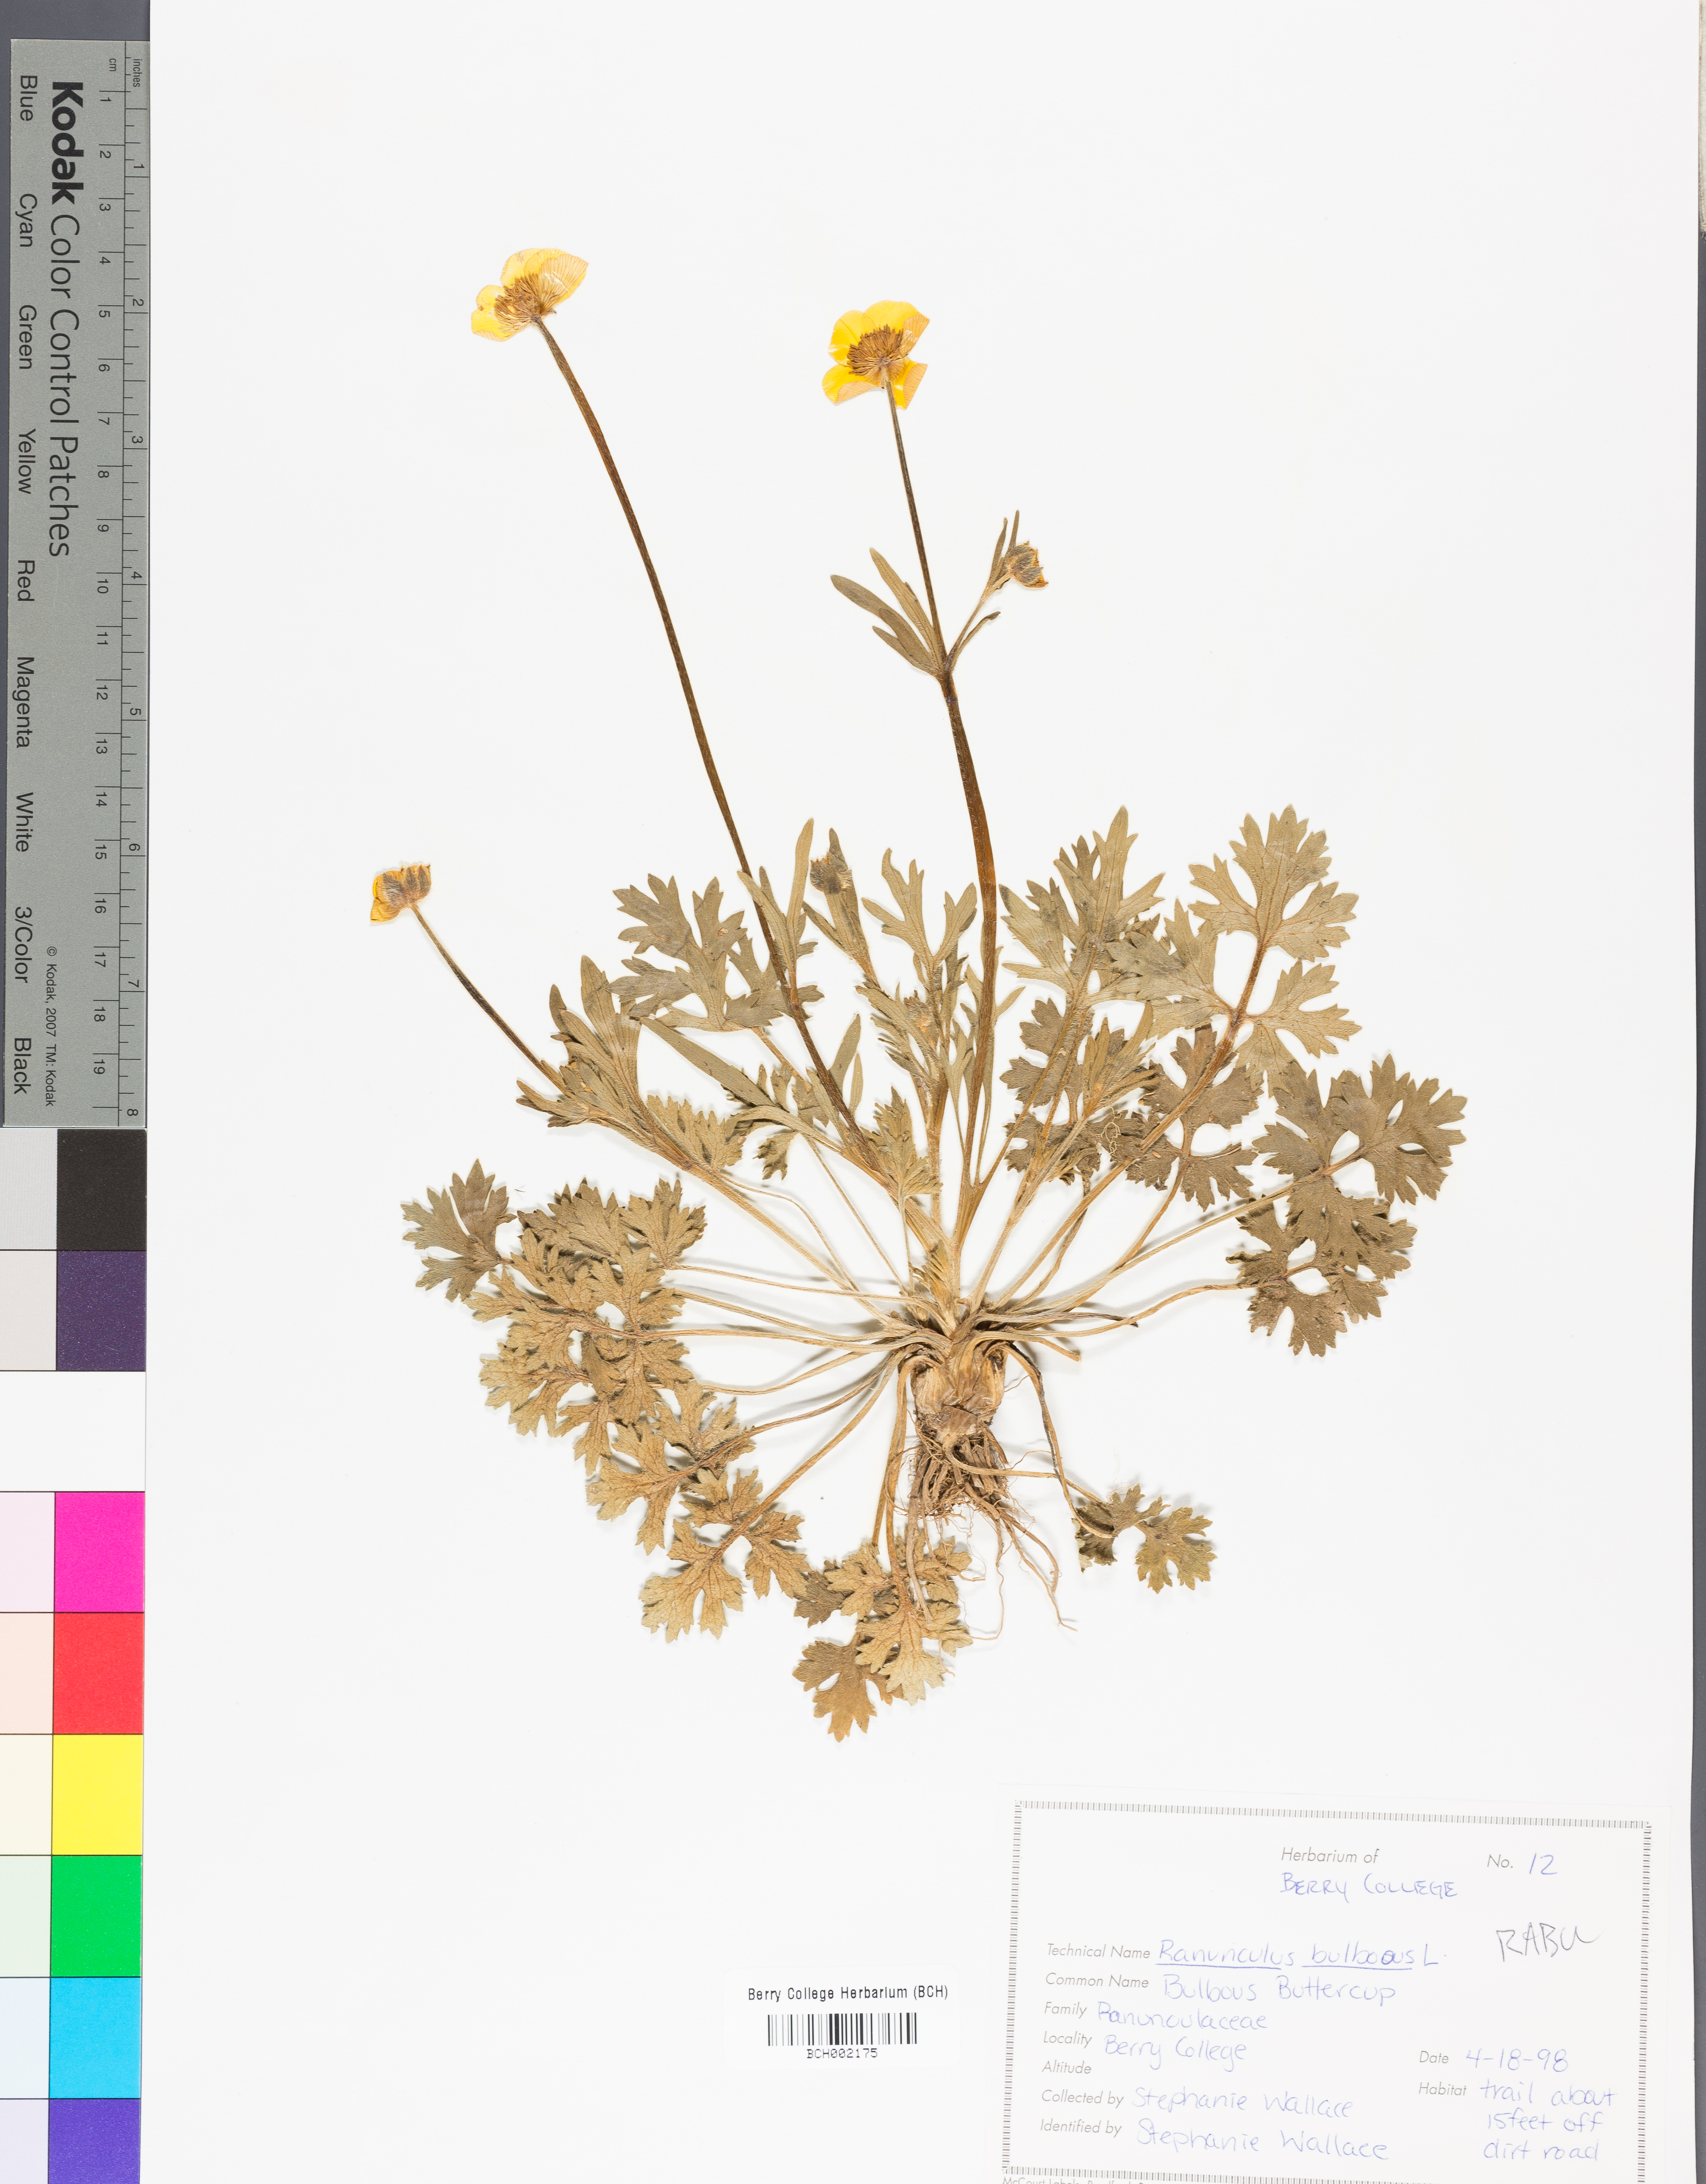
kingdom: Plantae
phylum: Tracheophyta
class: Magnoliopsida
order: Ranunculales
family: Ranunculaceae
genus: Ranunculus
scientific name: Ranunculus bulbosus
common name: Bulbous buttercup
